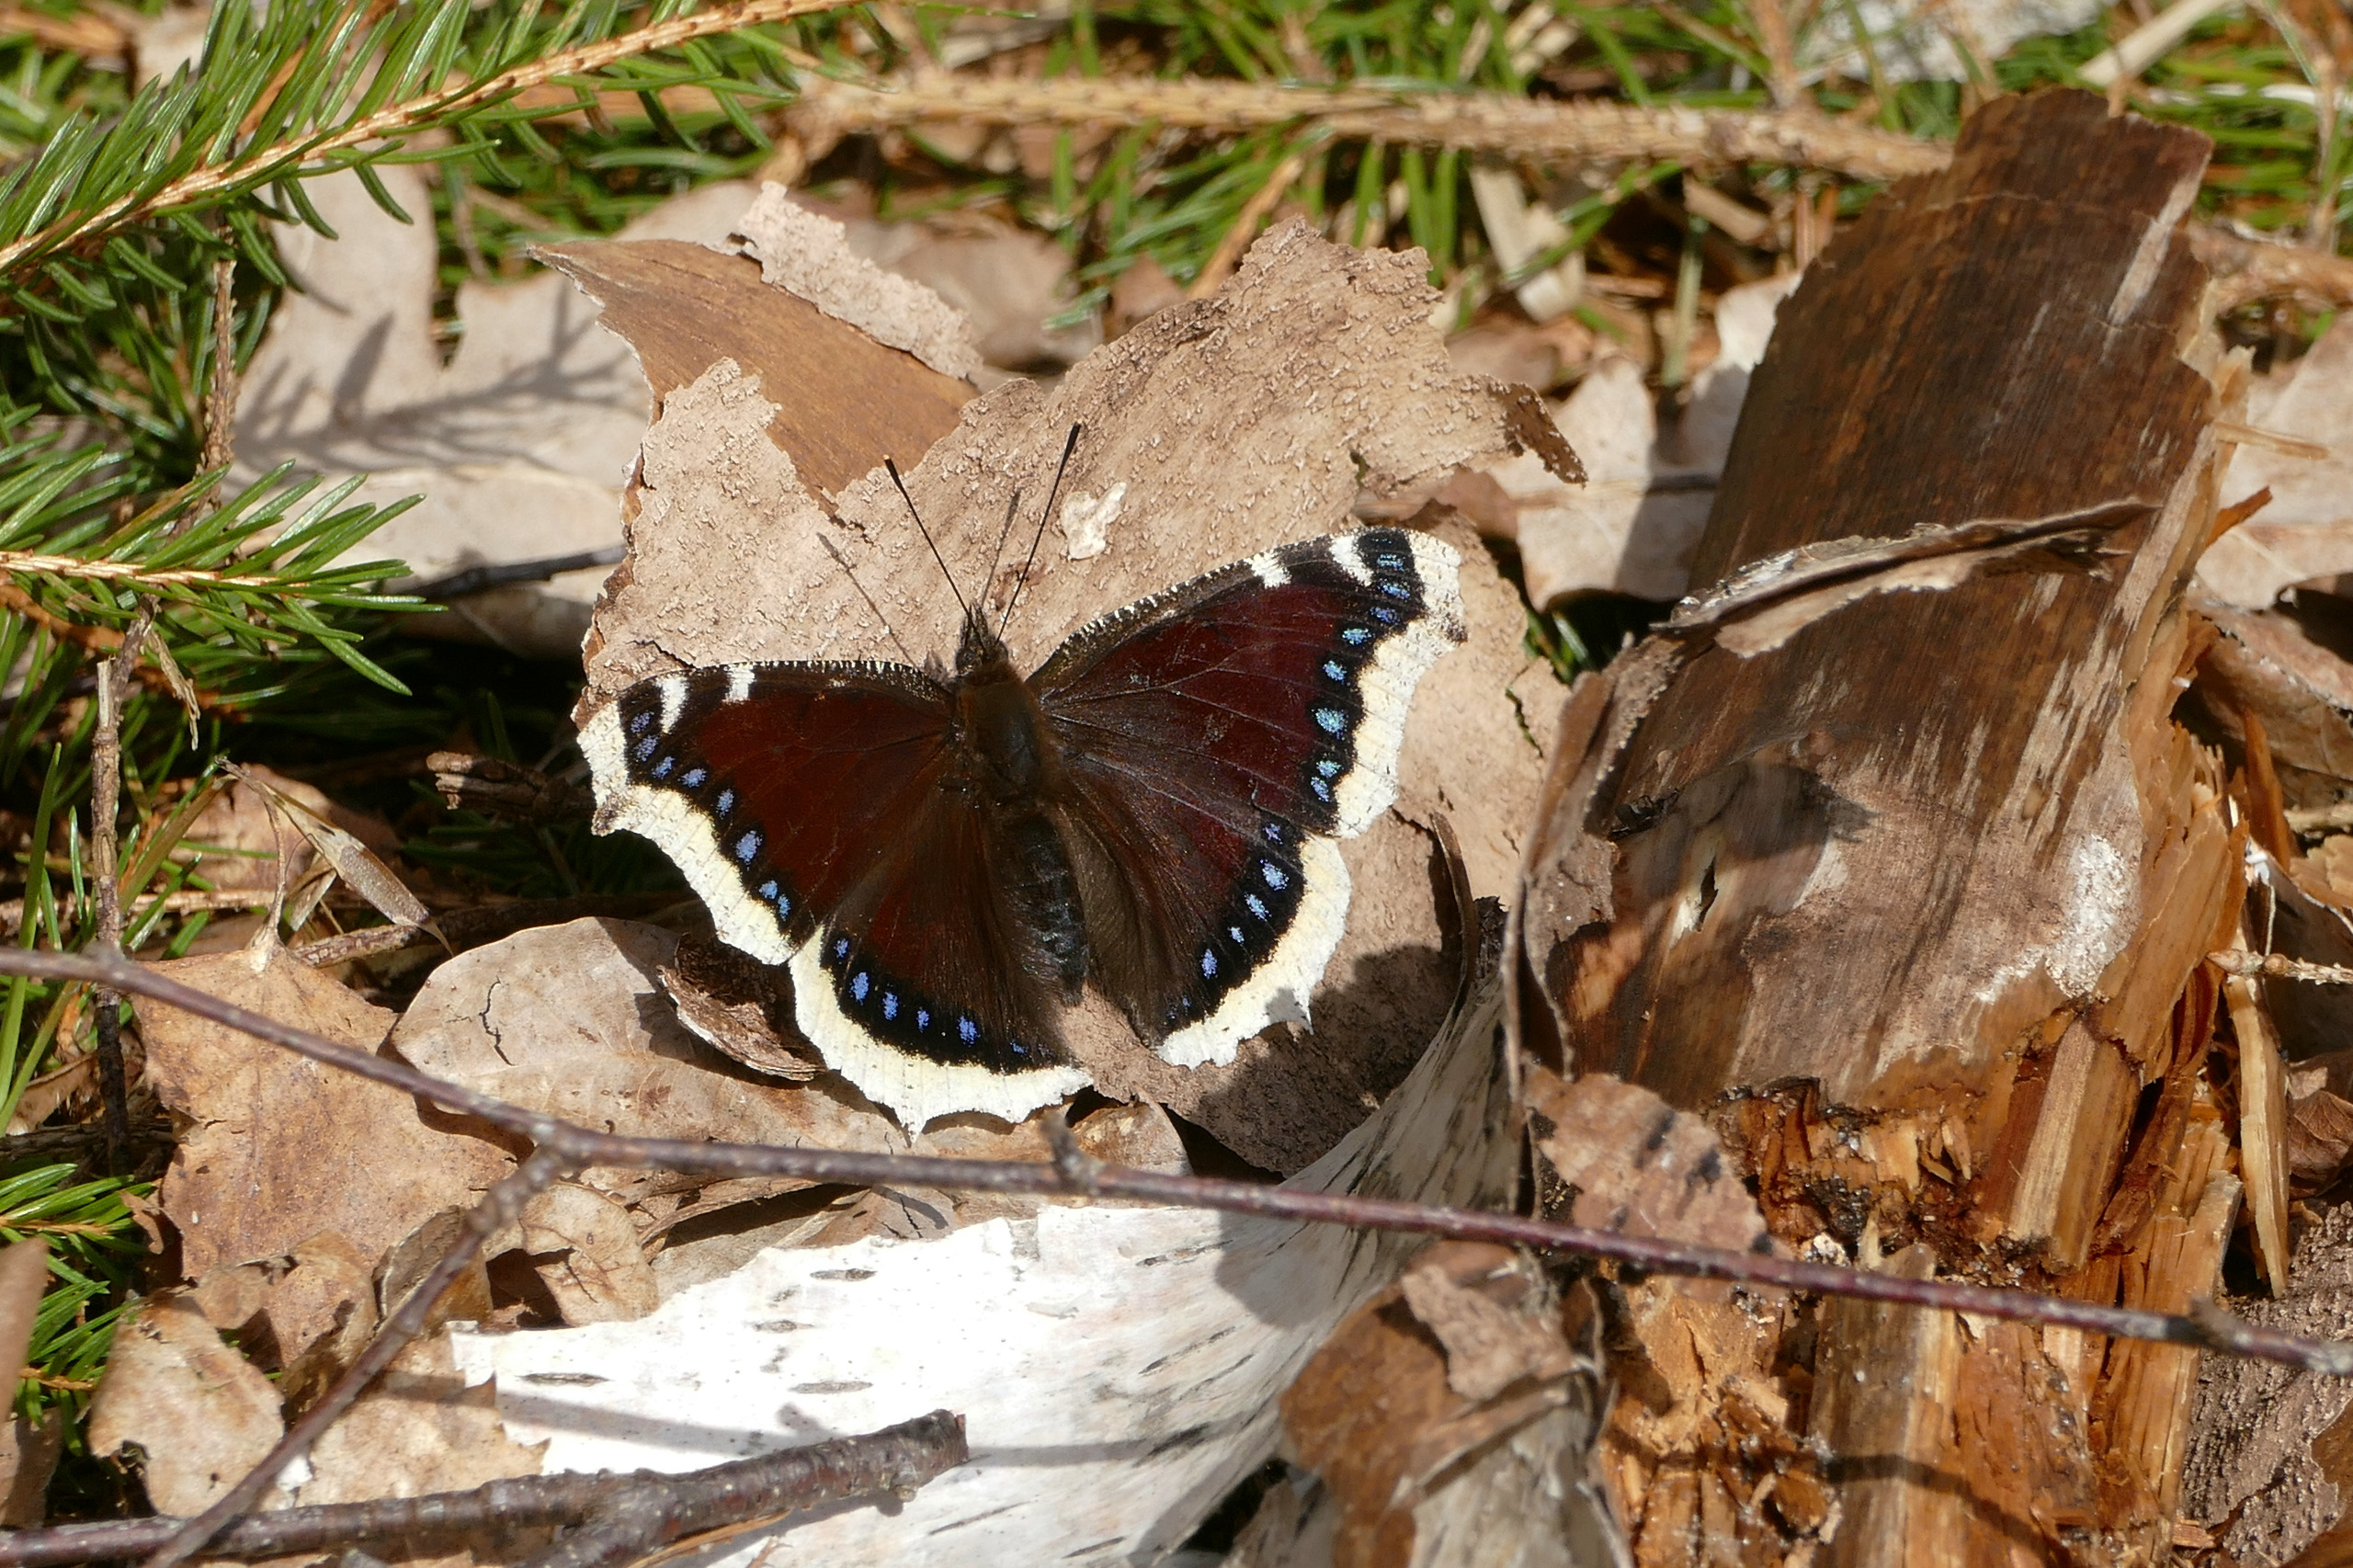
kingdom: Animalia
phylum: Arthropoda
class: Insecta
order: Lepidoptera
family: Nymphalidae
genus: Nymphalis
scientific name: Nymphalis antiopa
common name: Sørgekåbe
